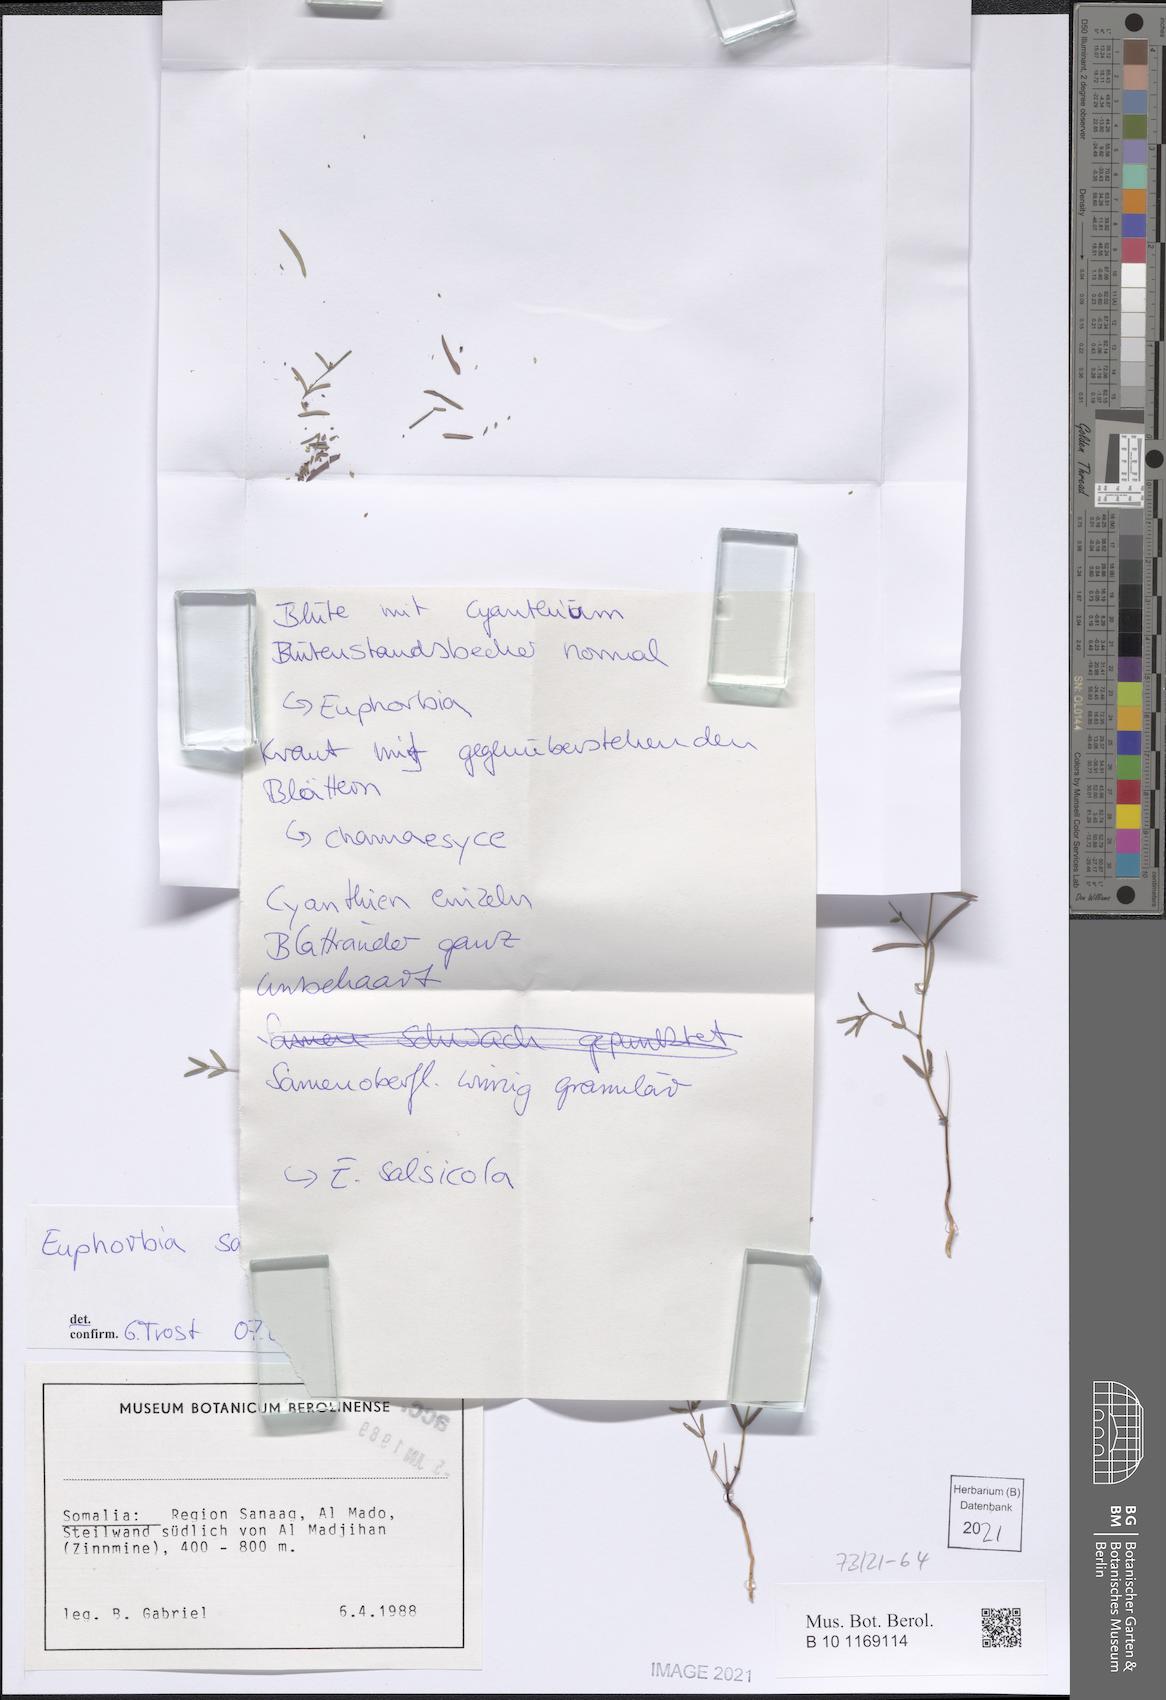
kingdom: Plantae
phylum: Tracheophyta
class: Magnoliopsida
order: Malpighiales
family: Euphorbiaceae
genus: Euphorbia
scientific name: Euphorbia arabica
